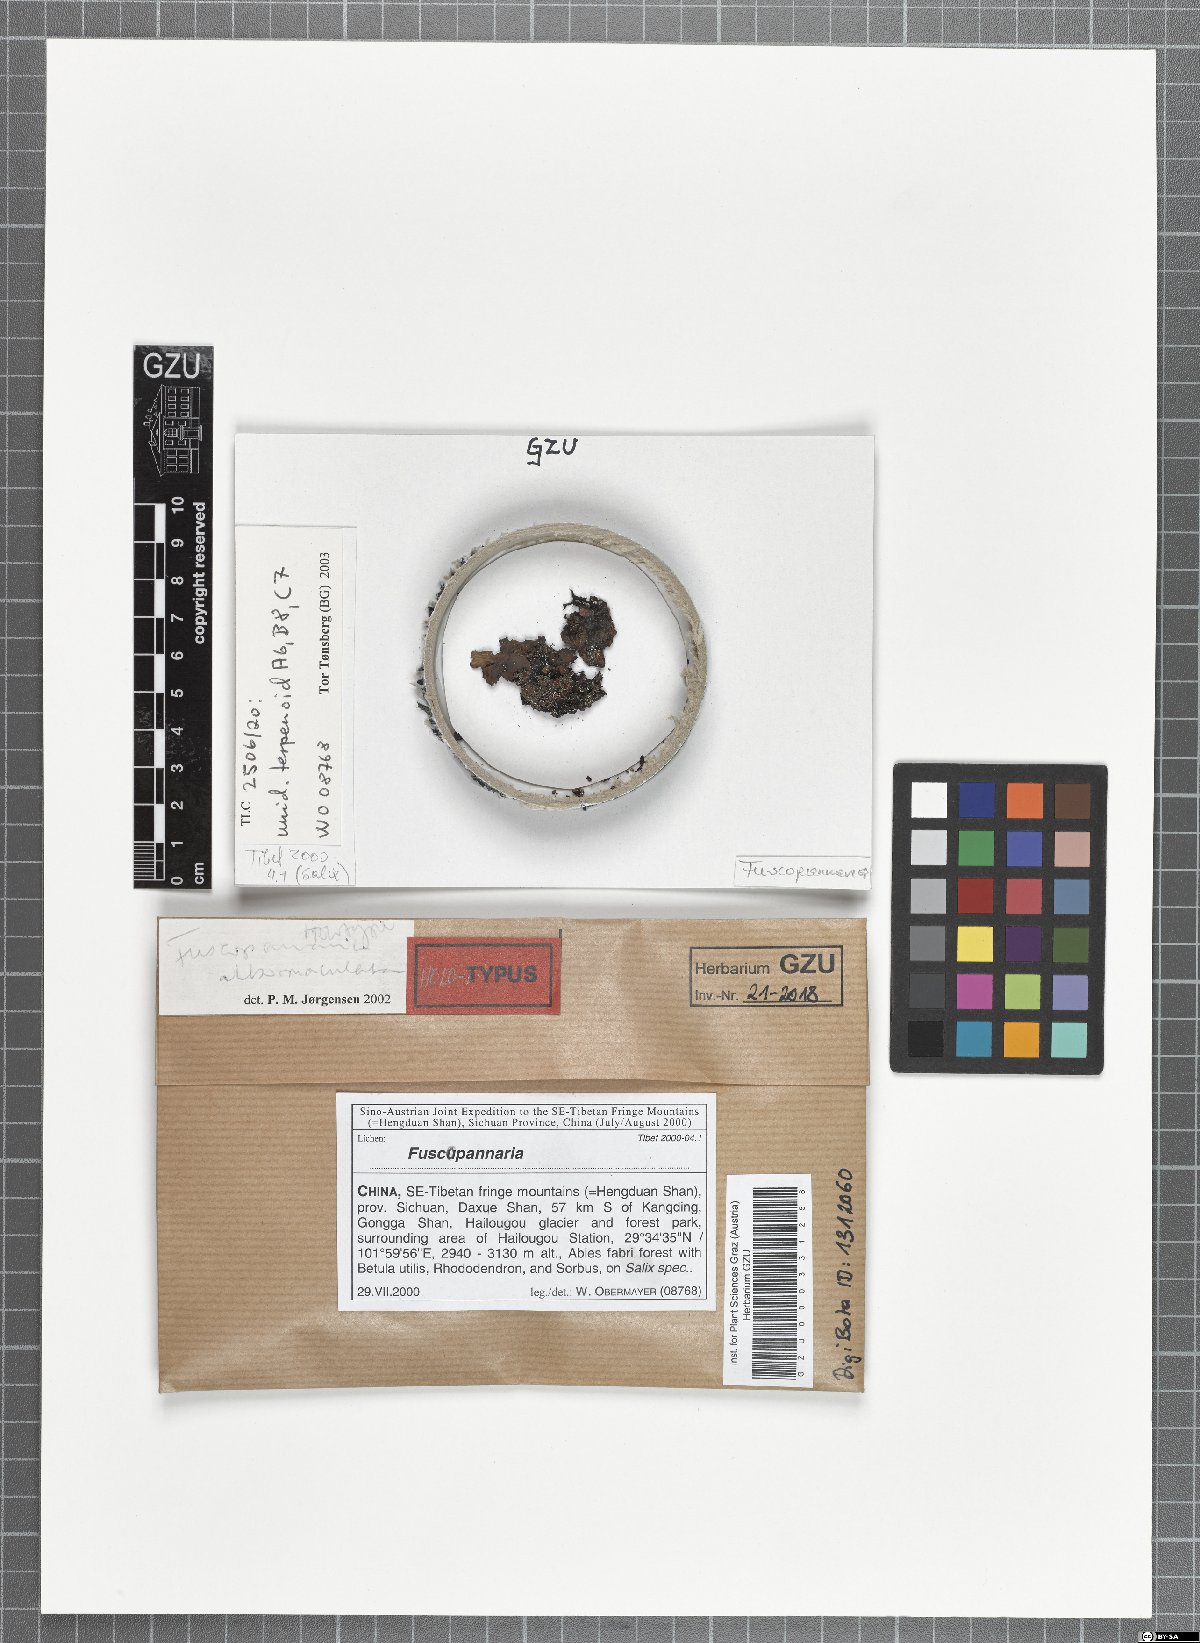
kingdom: Fungi
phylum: Ascomycota
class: Lecanoromycetes
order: Peltigerales
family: Pannariaceae
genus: Fuscopannaria
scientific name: Fuscopannaria albomaculata
